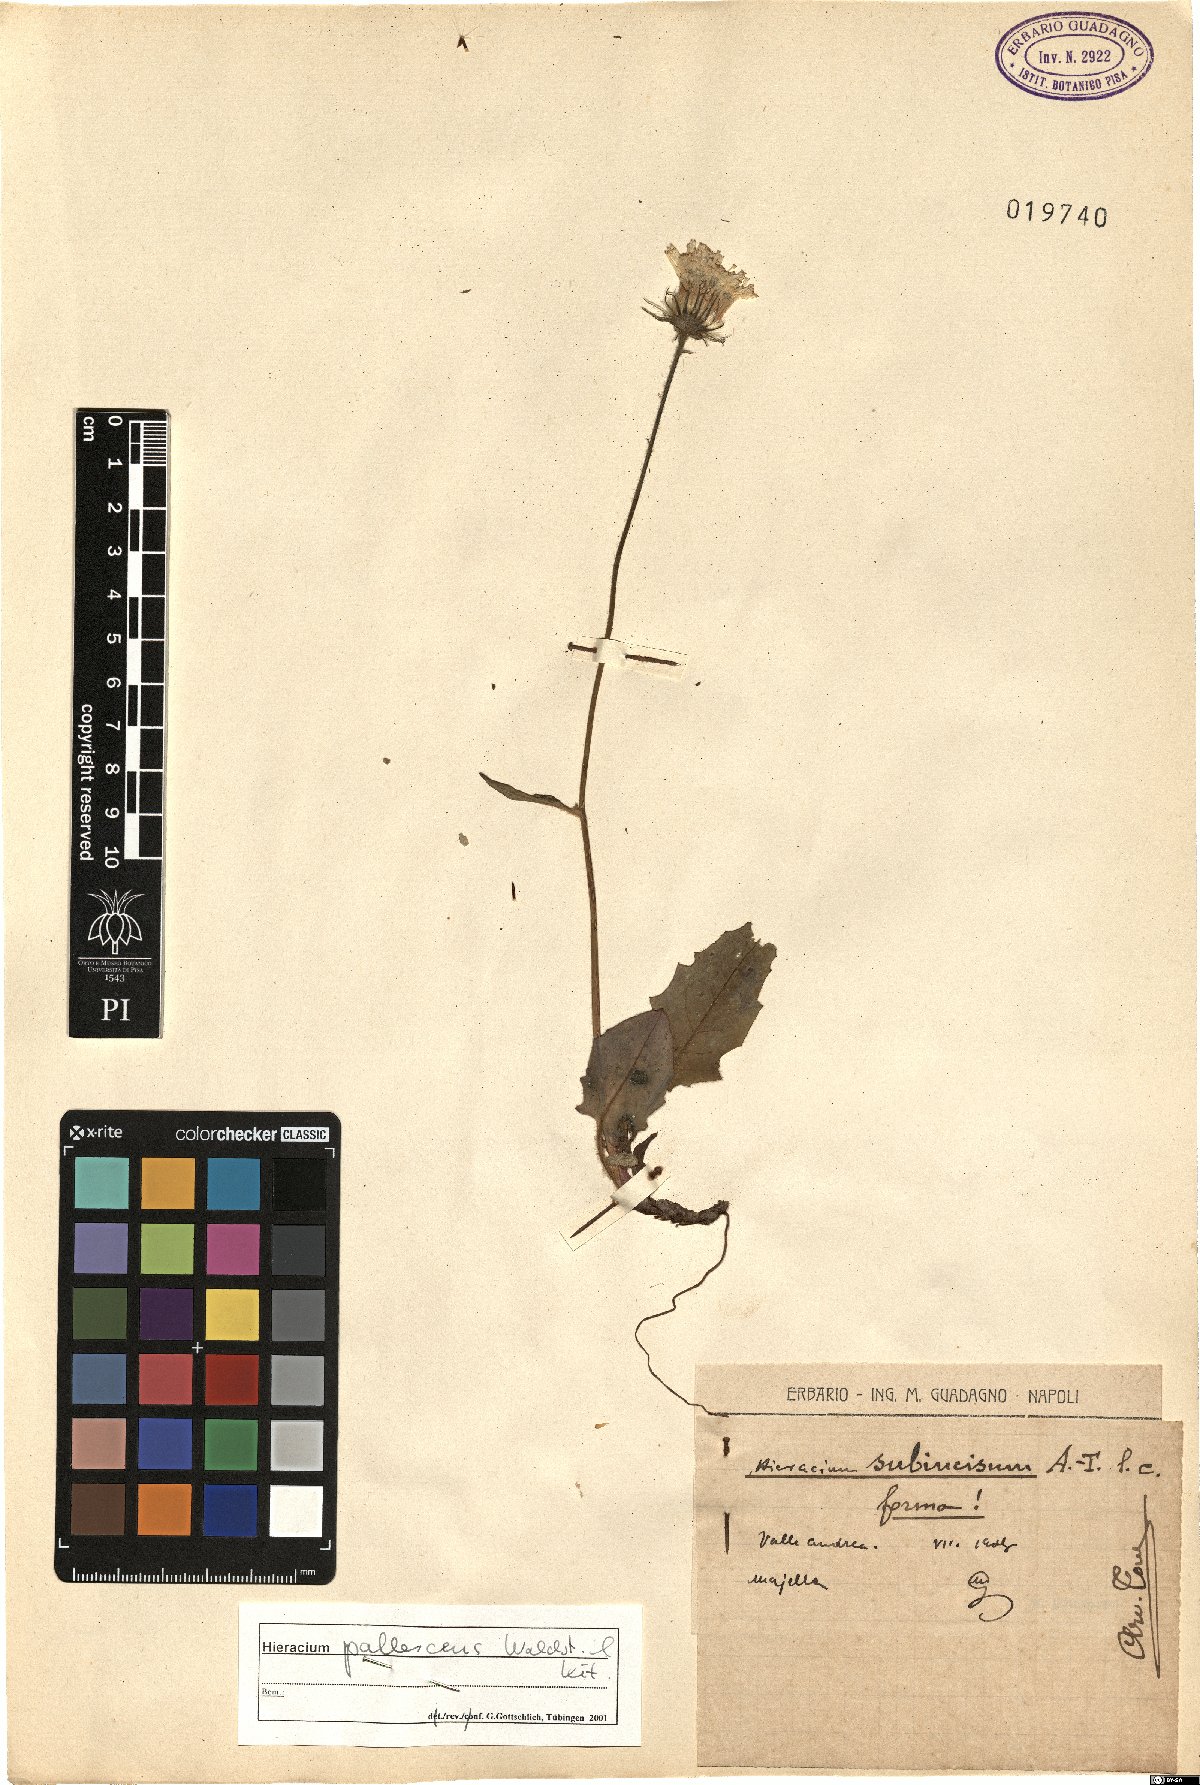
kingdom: Plantae
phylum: Tracheophyta
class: Magnoliopsida
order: Asterales
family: Asteraceae
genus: Hieracium
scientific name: Hieracium pallescens
